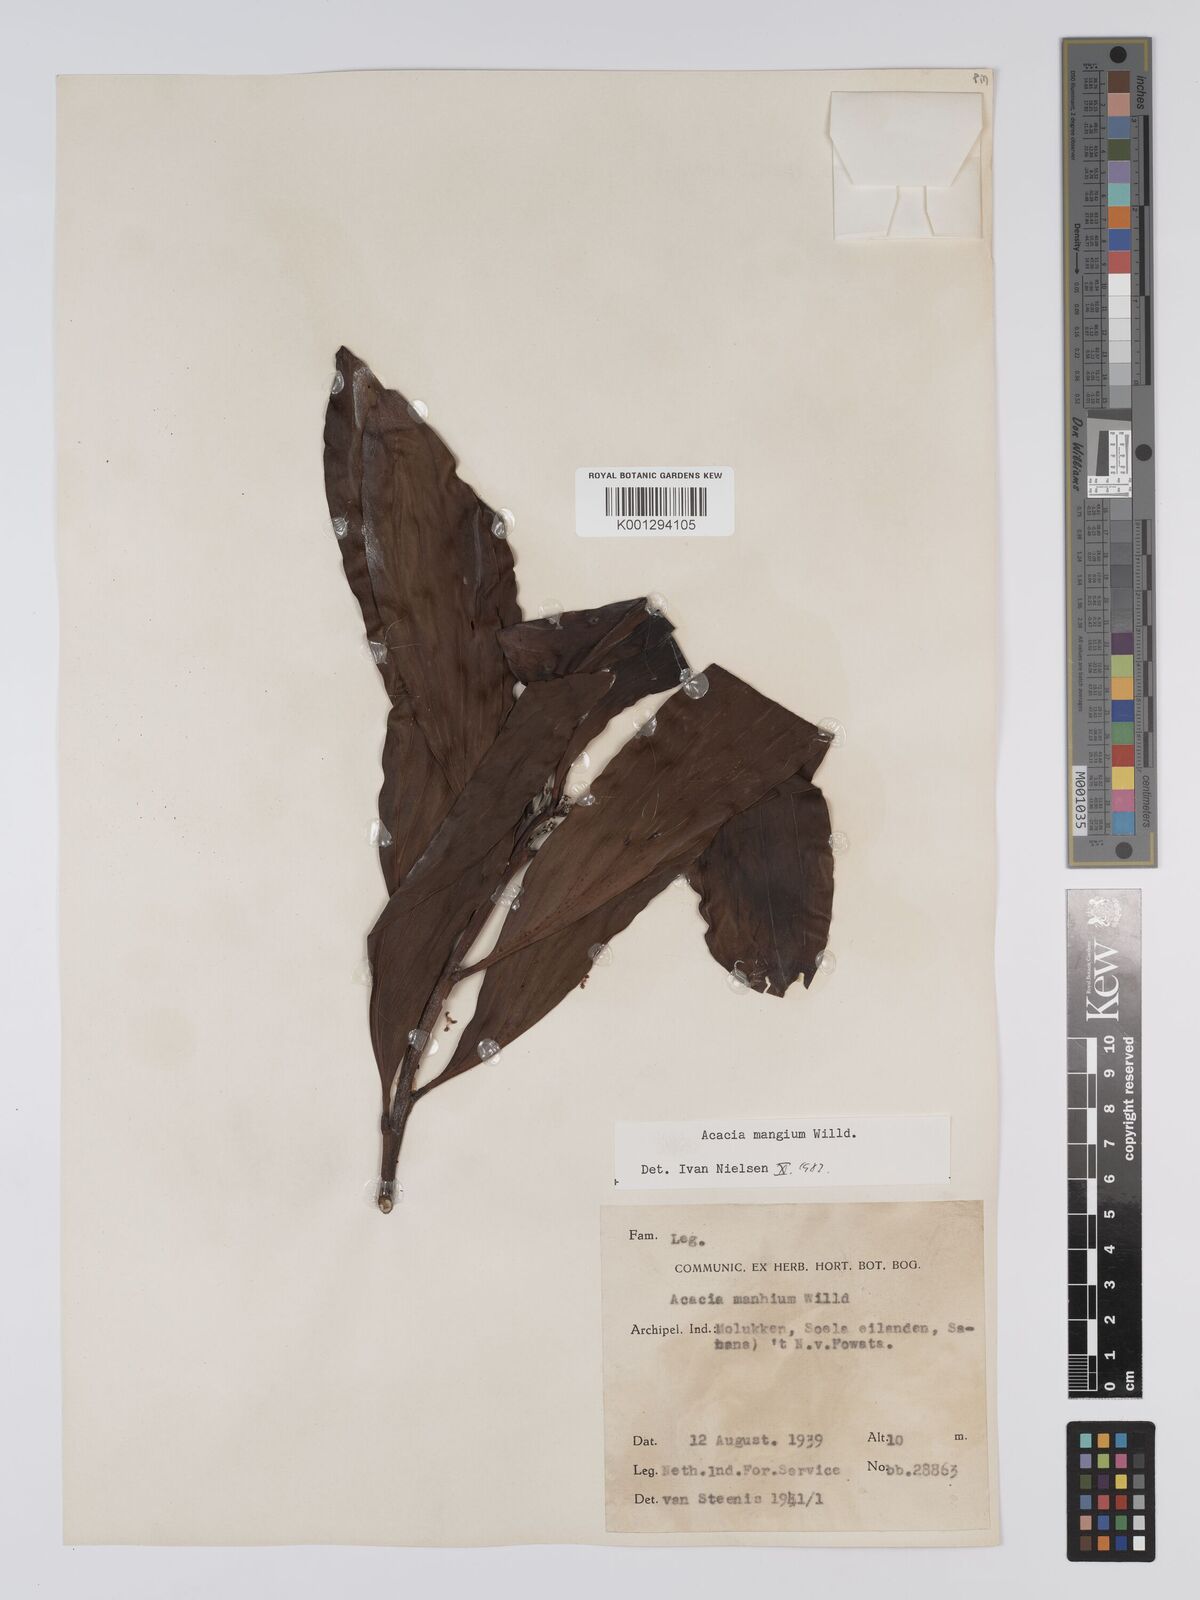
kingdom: Plantae
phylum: Tracheophyta
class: Magnoliopsida
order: Fabales
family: Fabaceae
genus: Acacia
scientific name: Acacia
